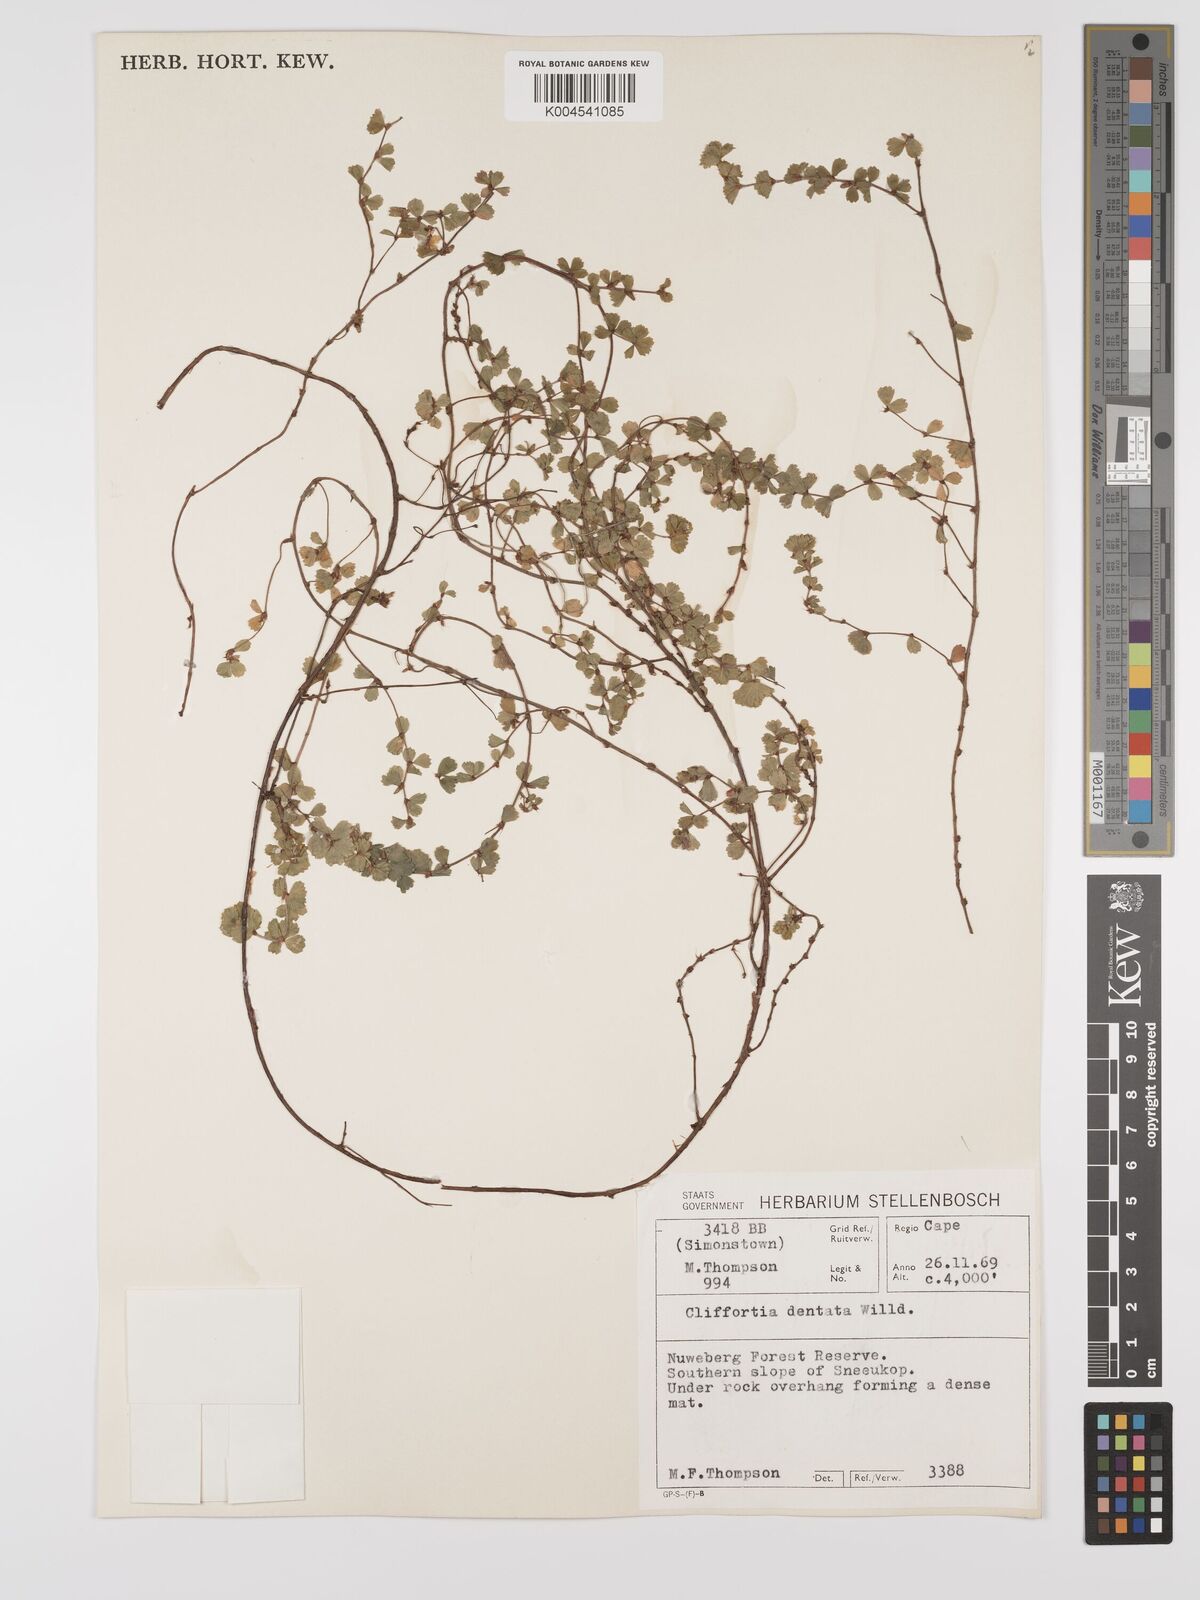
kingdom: Plantae
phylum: Tracheophyta
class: Magnoliopsida
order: Rosales
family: Rosaceae
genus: Cliffortia
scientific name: Cliffortia
